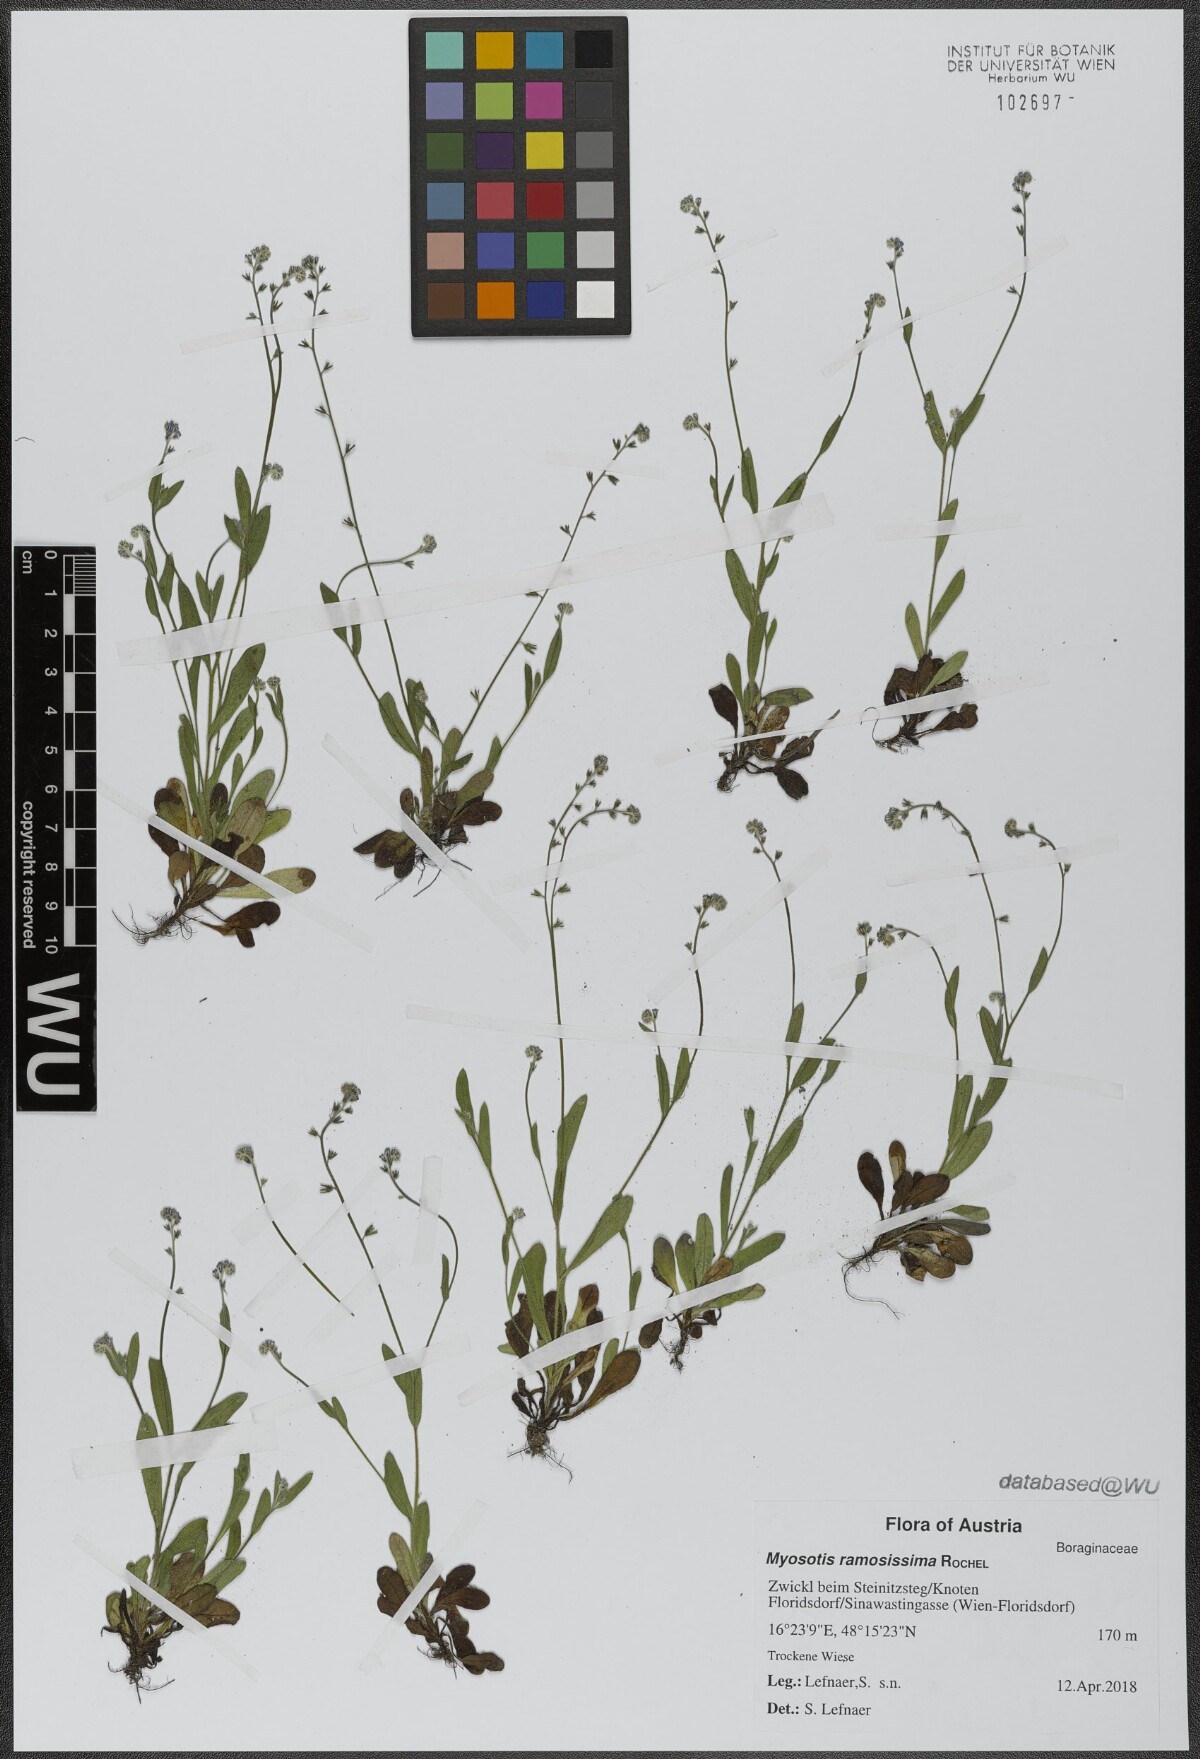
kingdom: Plantae
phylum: Tracheophyta
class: Magnoliopsida
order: Boraginales
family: Boraginaceae
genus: Myosotis
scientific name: Myosotis ramosissima
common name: Early forget-me-not
